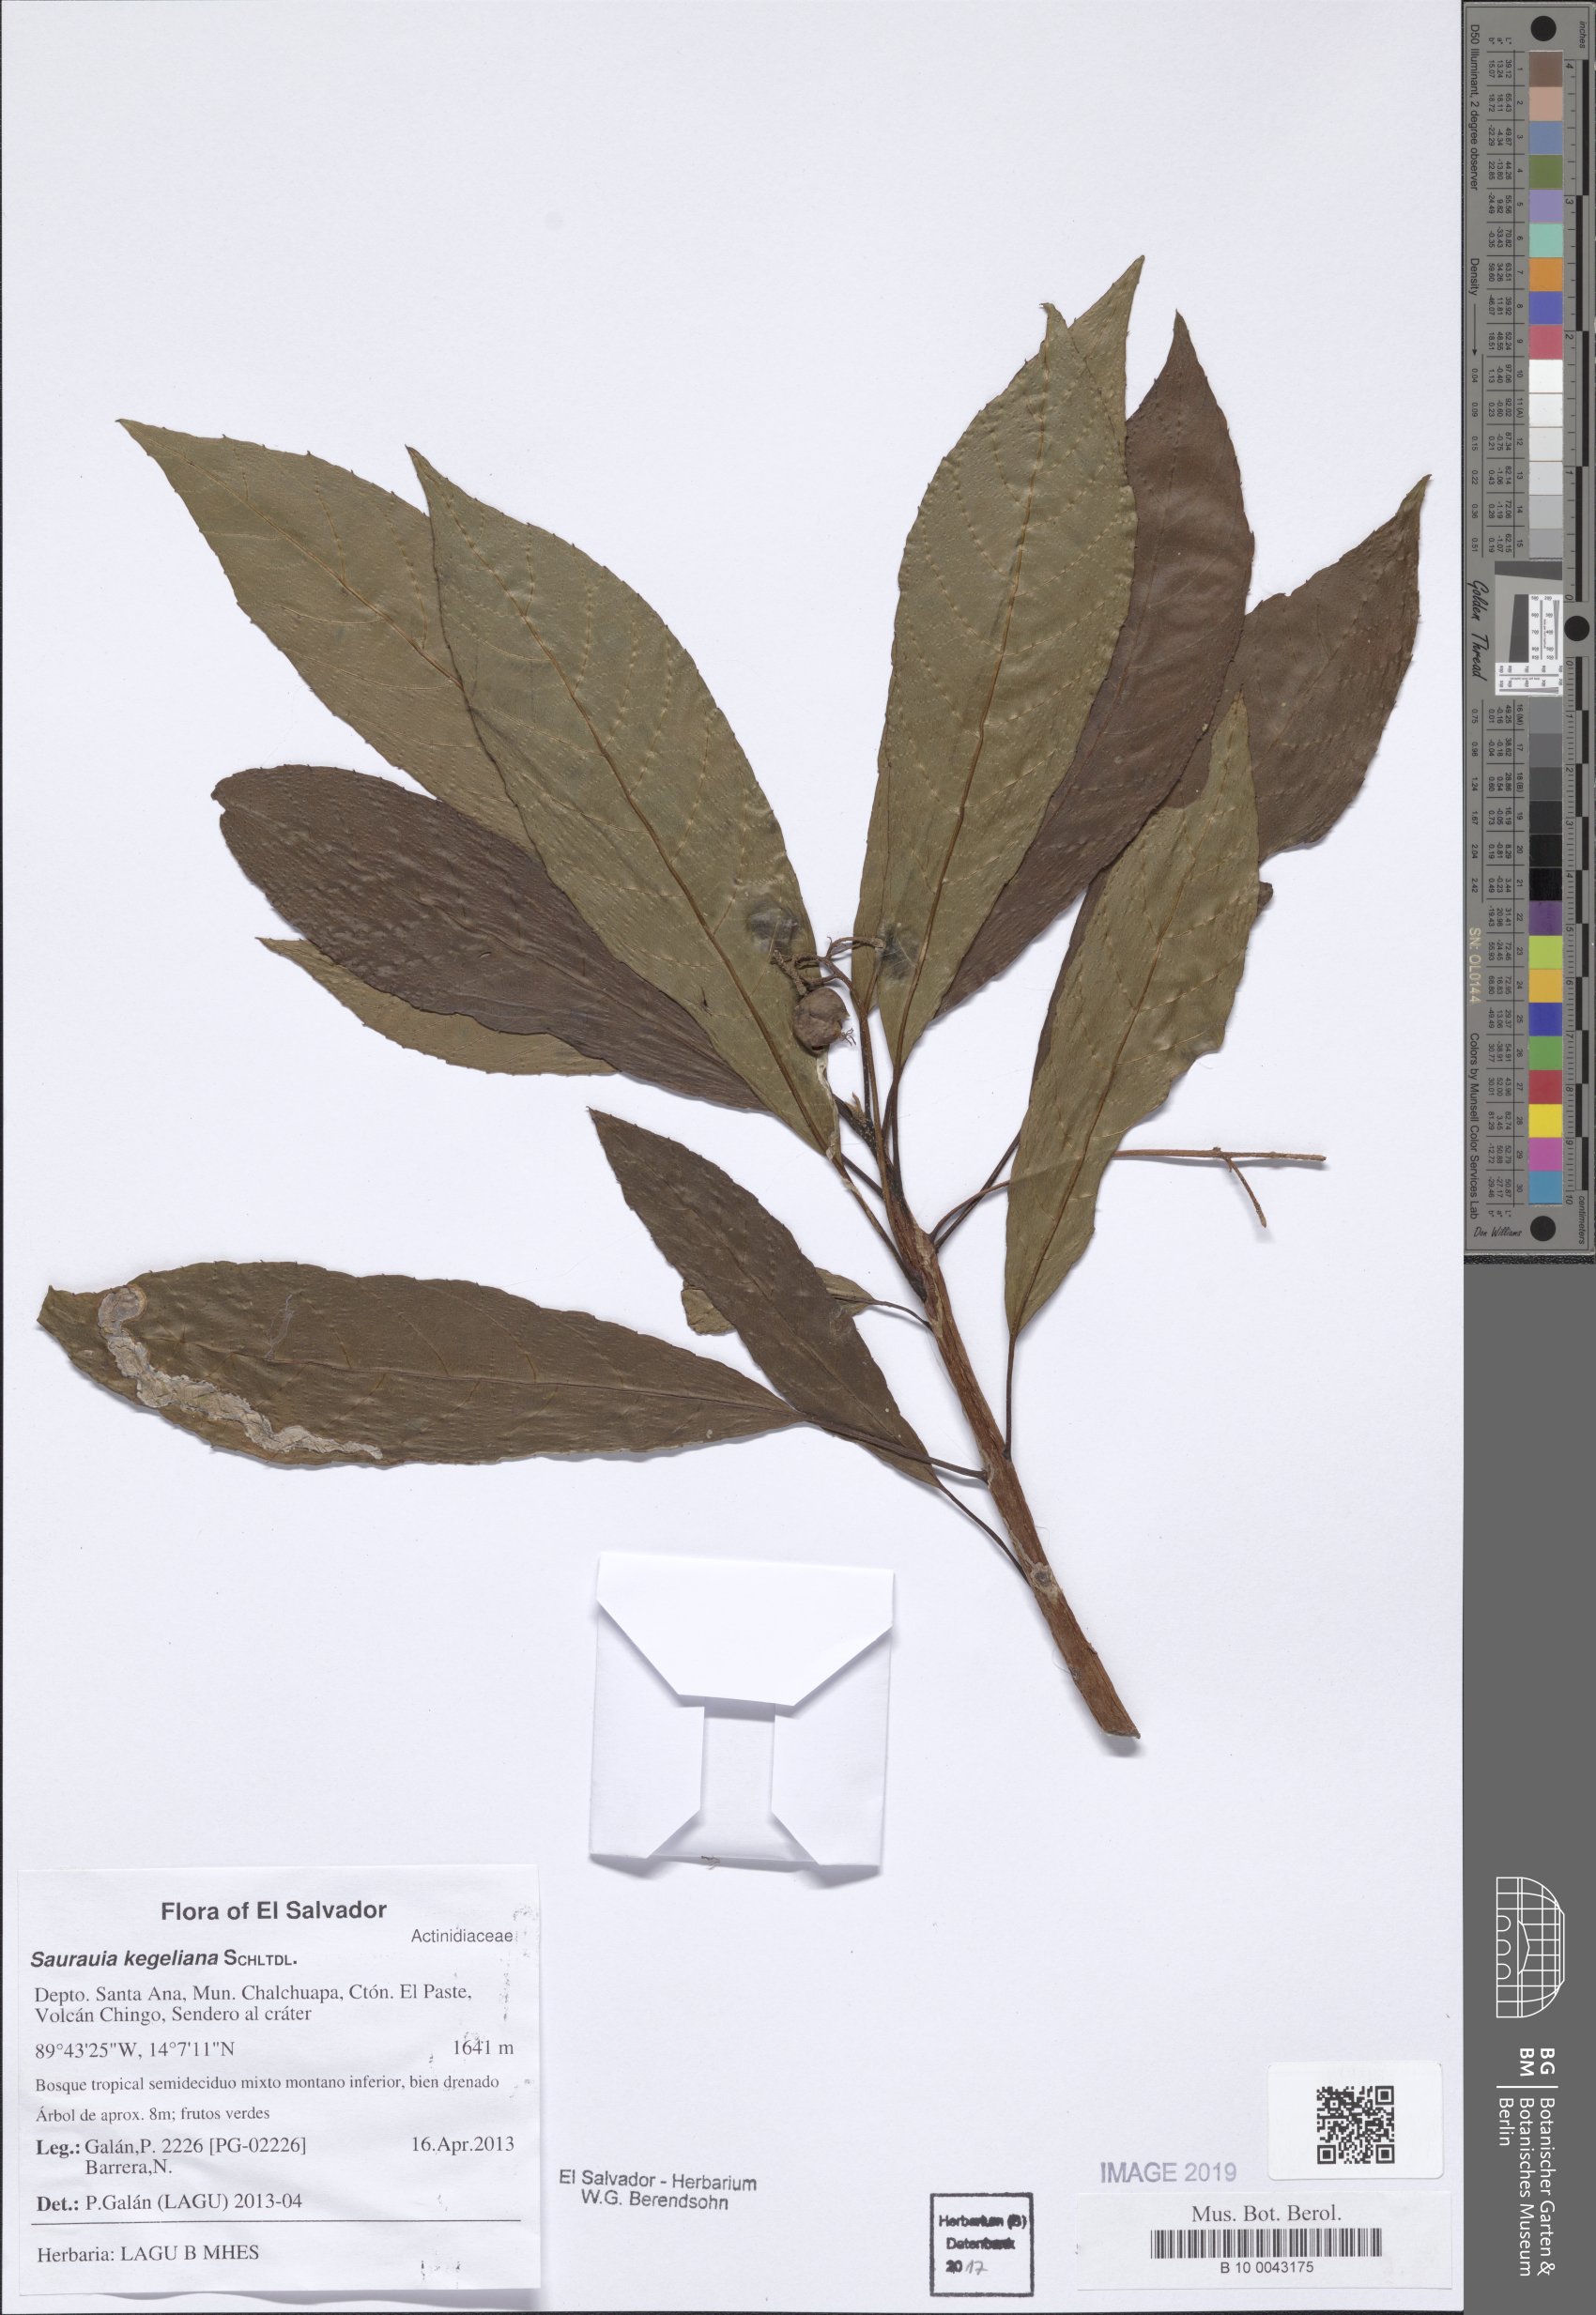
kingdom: Plantae
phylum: Tracheophyta
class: Magnoliopsida
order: Ericales
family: Actinidiaceae
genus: Saurauia
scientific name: Saurauia kegeliana
